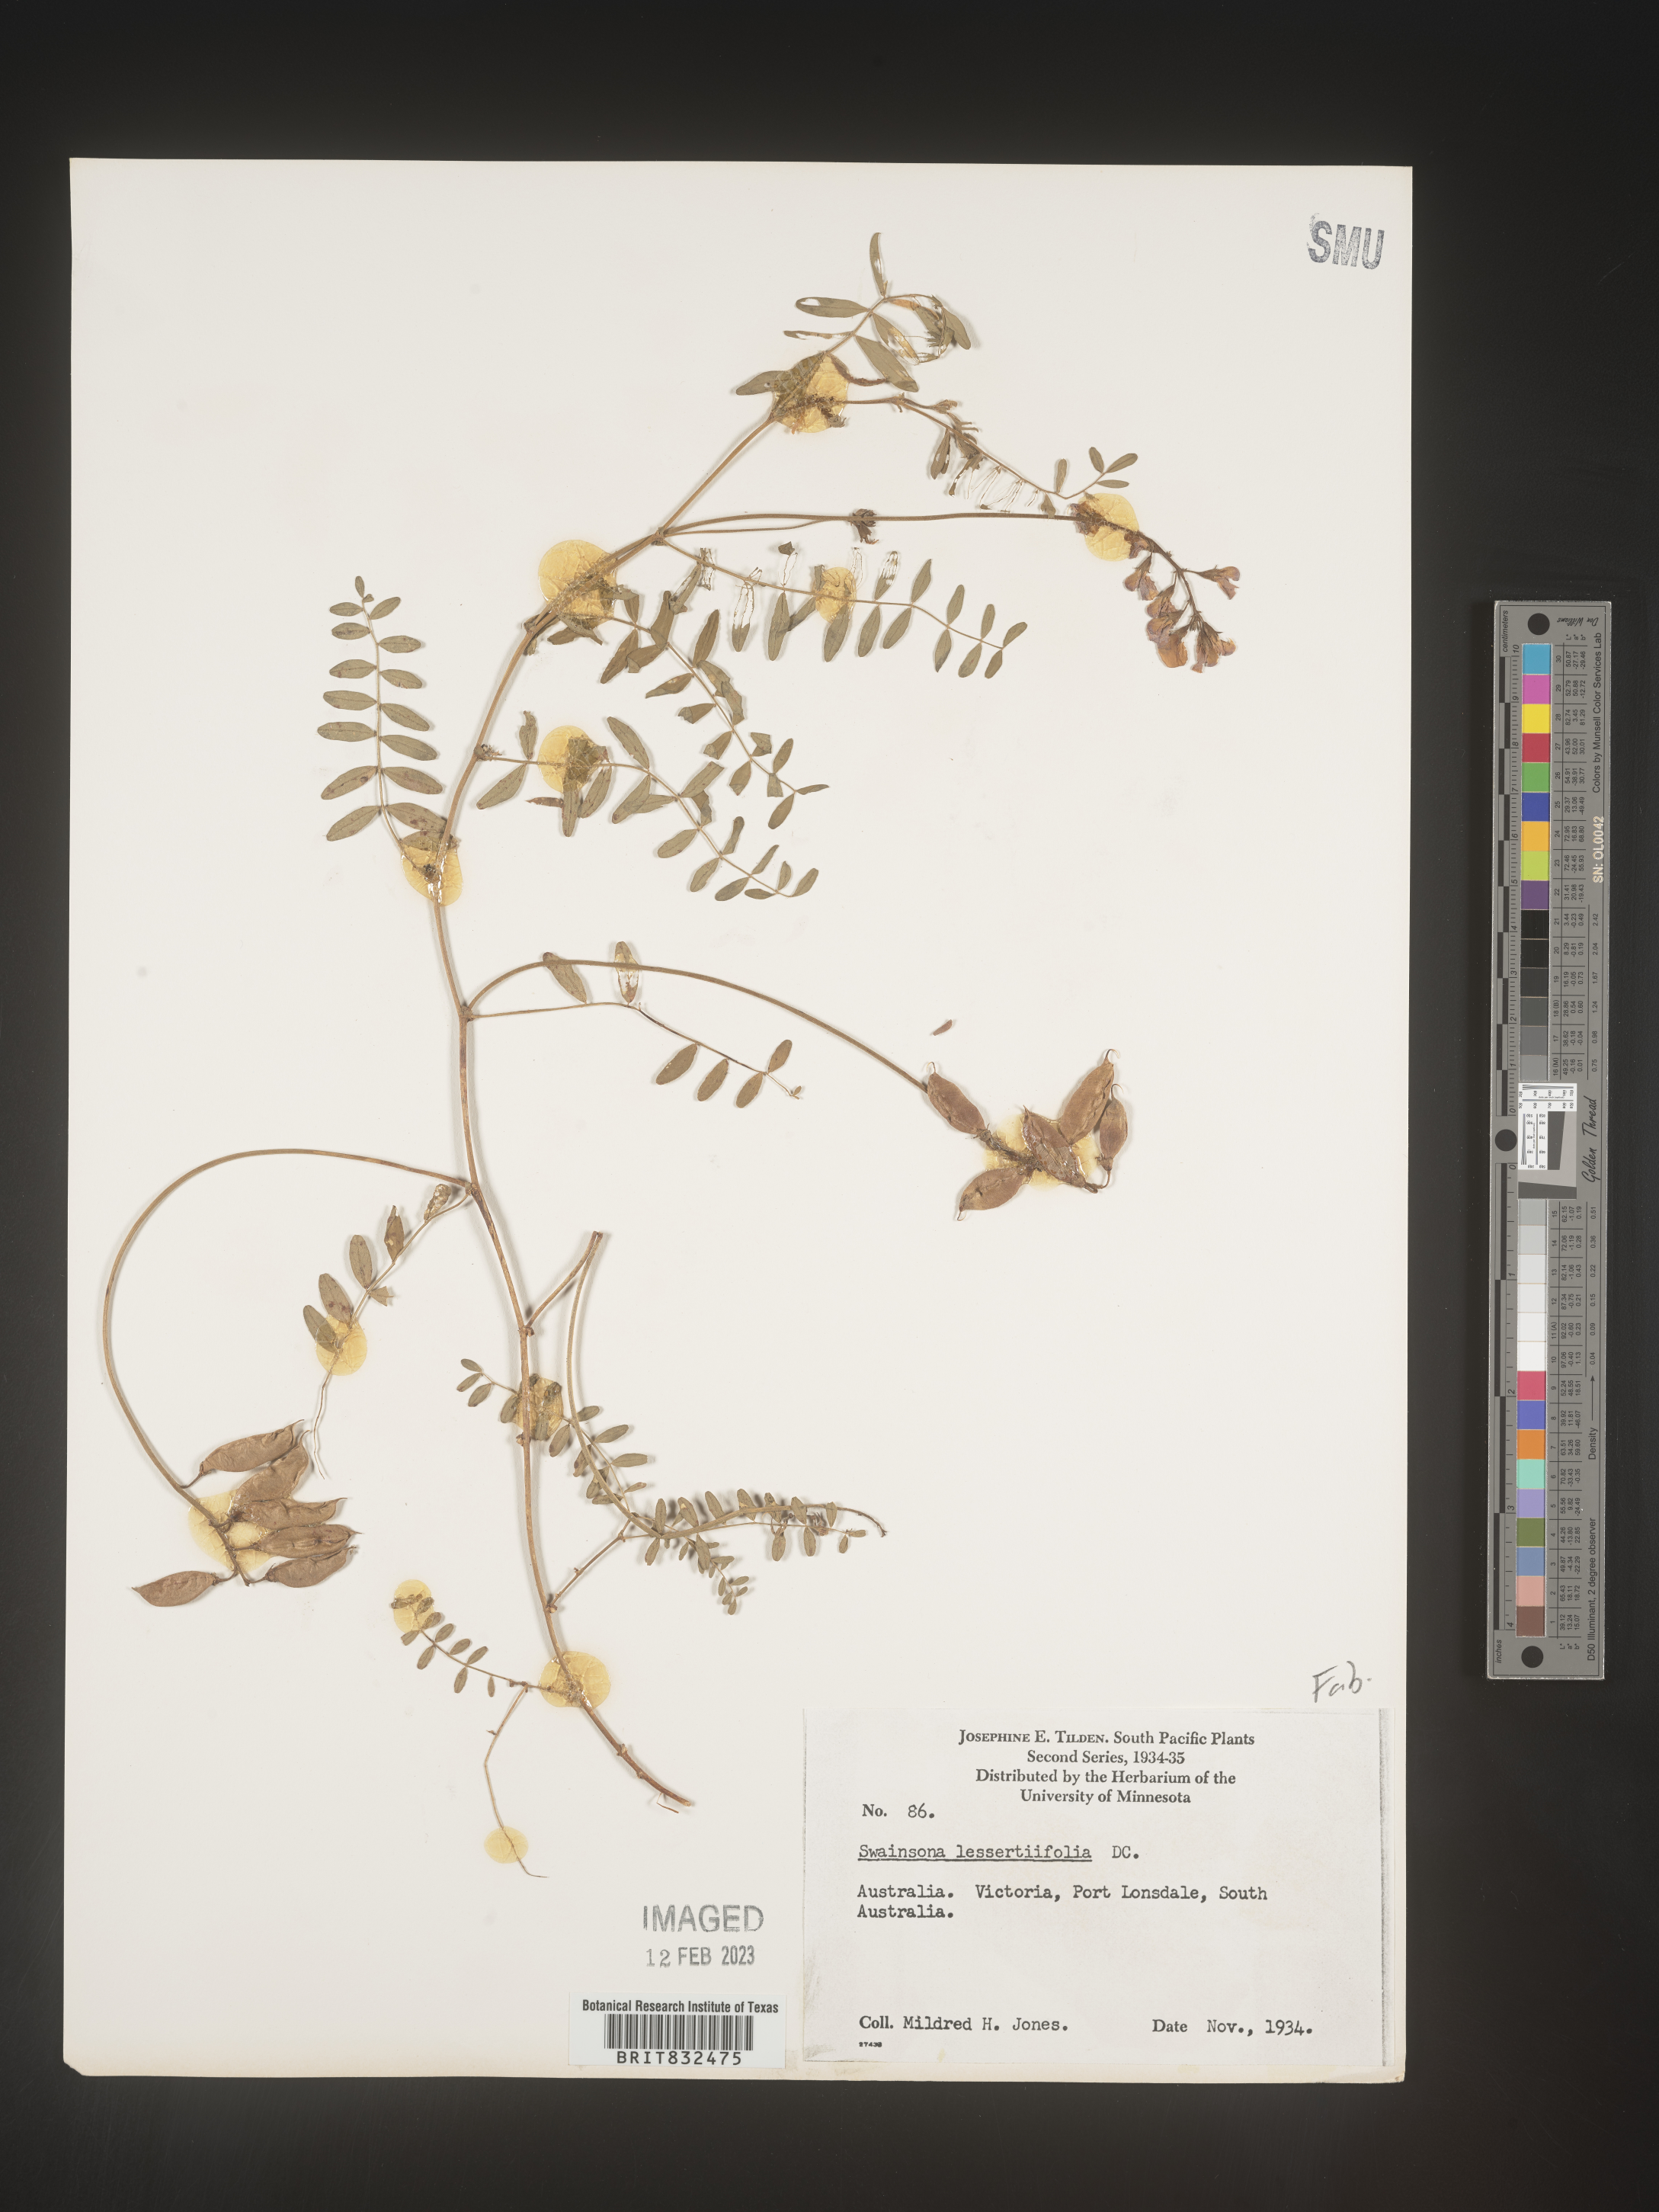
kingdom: Plantae
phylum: Tracheophyta
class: Magnoliopsida
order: Fabales
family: Fabaceae
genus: Swainsona
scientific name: Swainsona
